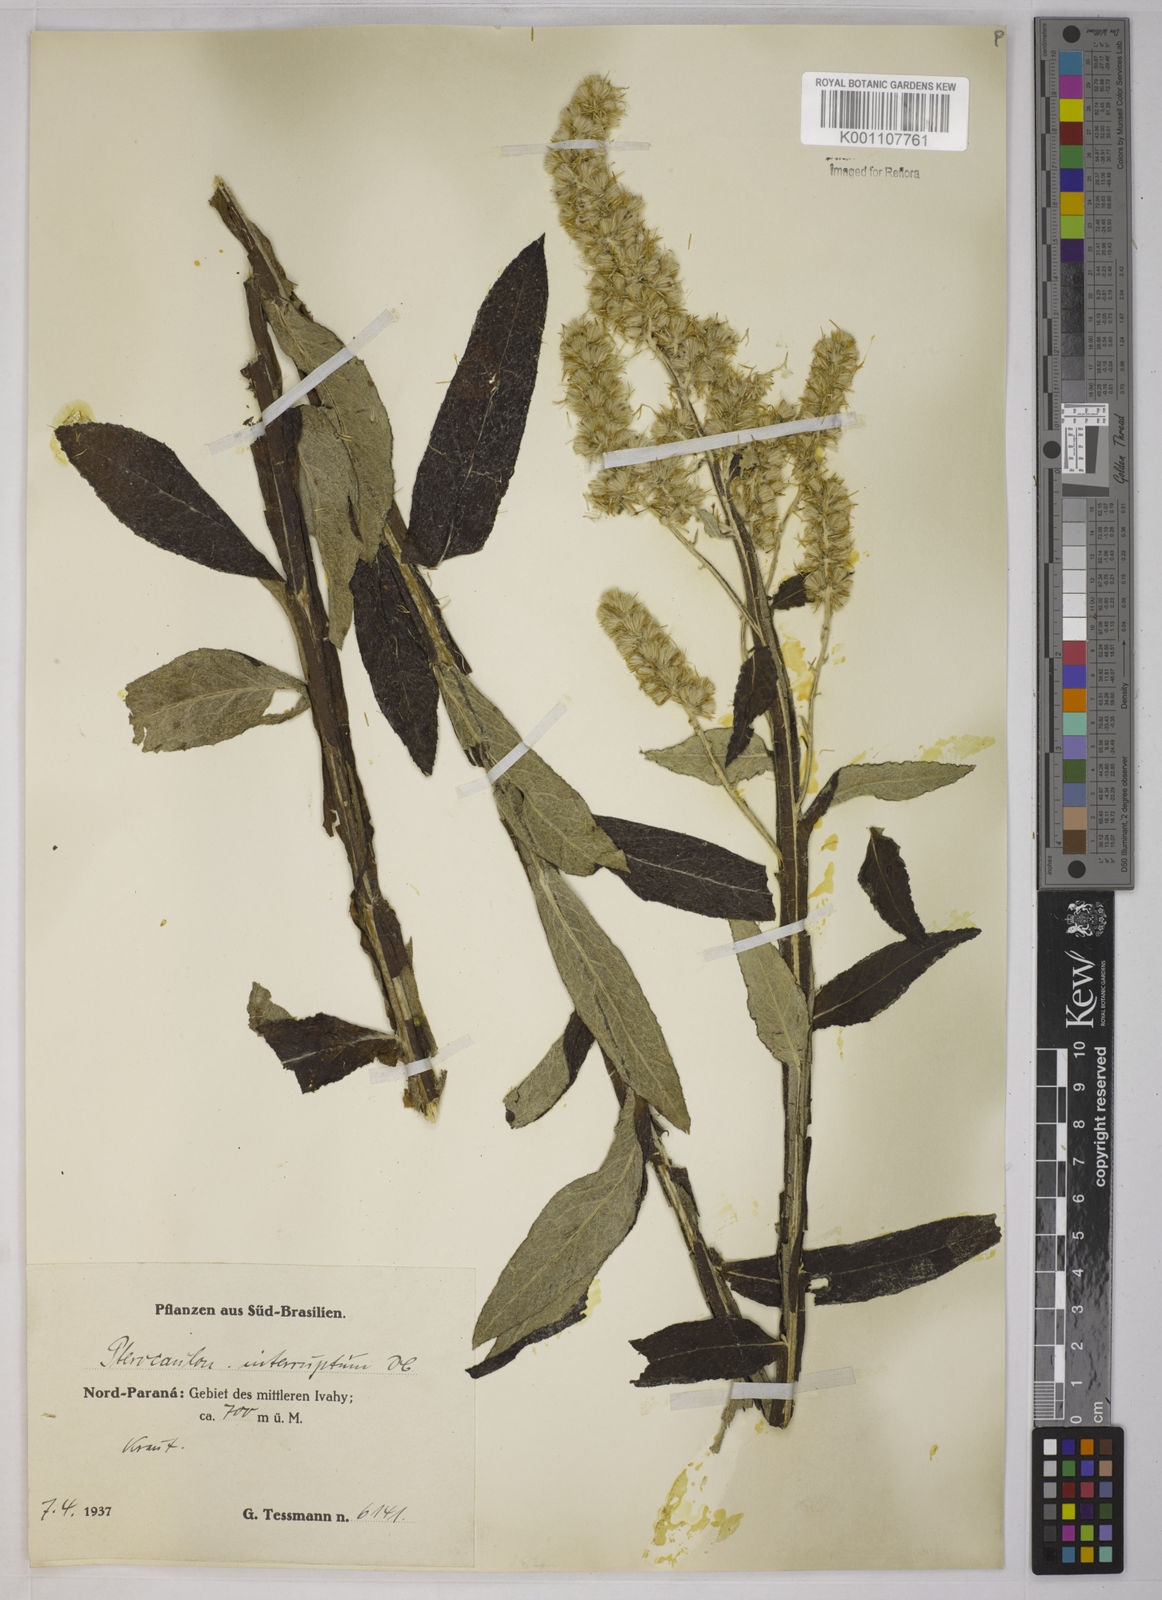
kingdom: Plantae
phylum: Tracheophyta
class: Magnoliopsida
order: Asterales
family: Asteraceae
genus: Pterocaulon
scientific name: Pterocaulon alopecuroides
